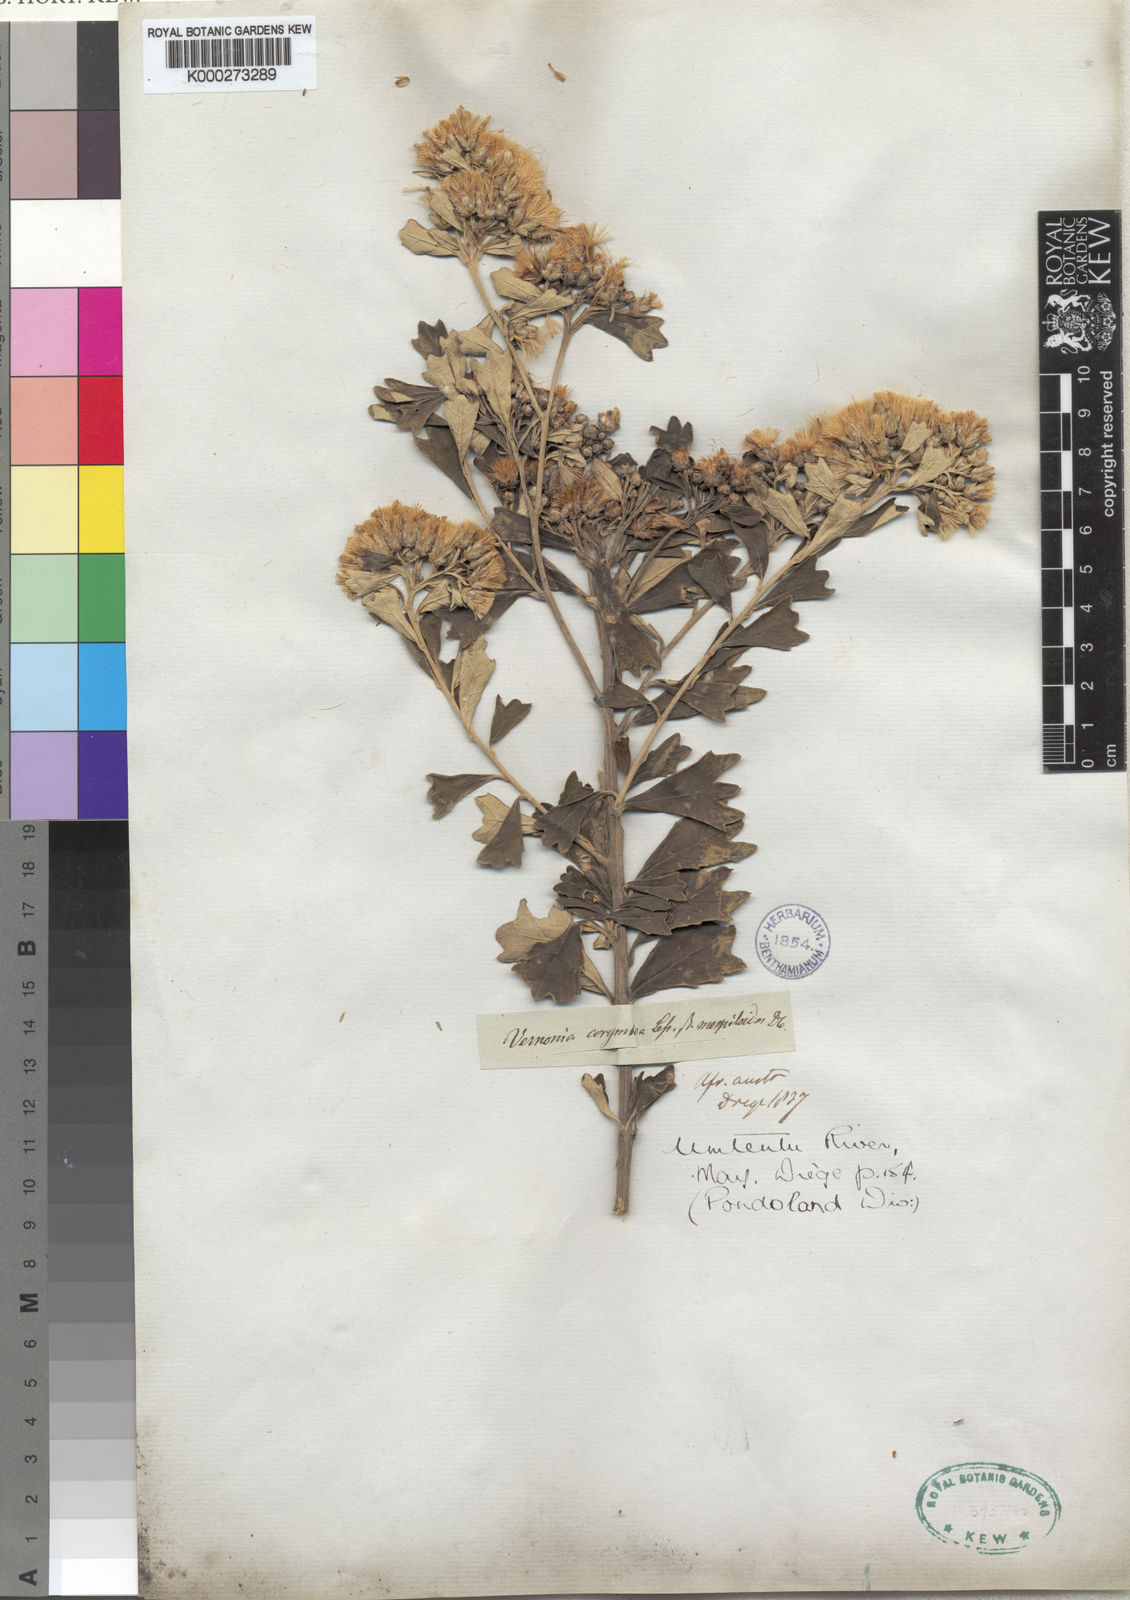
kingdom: Plantae
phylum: Tracheophyta
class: Magnoliopsida
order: Asterales
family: Asteraceae
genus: Vernonia
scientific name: Vernonia
